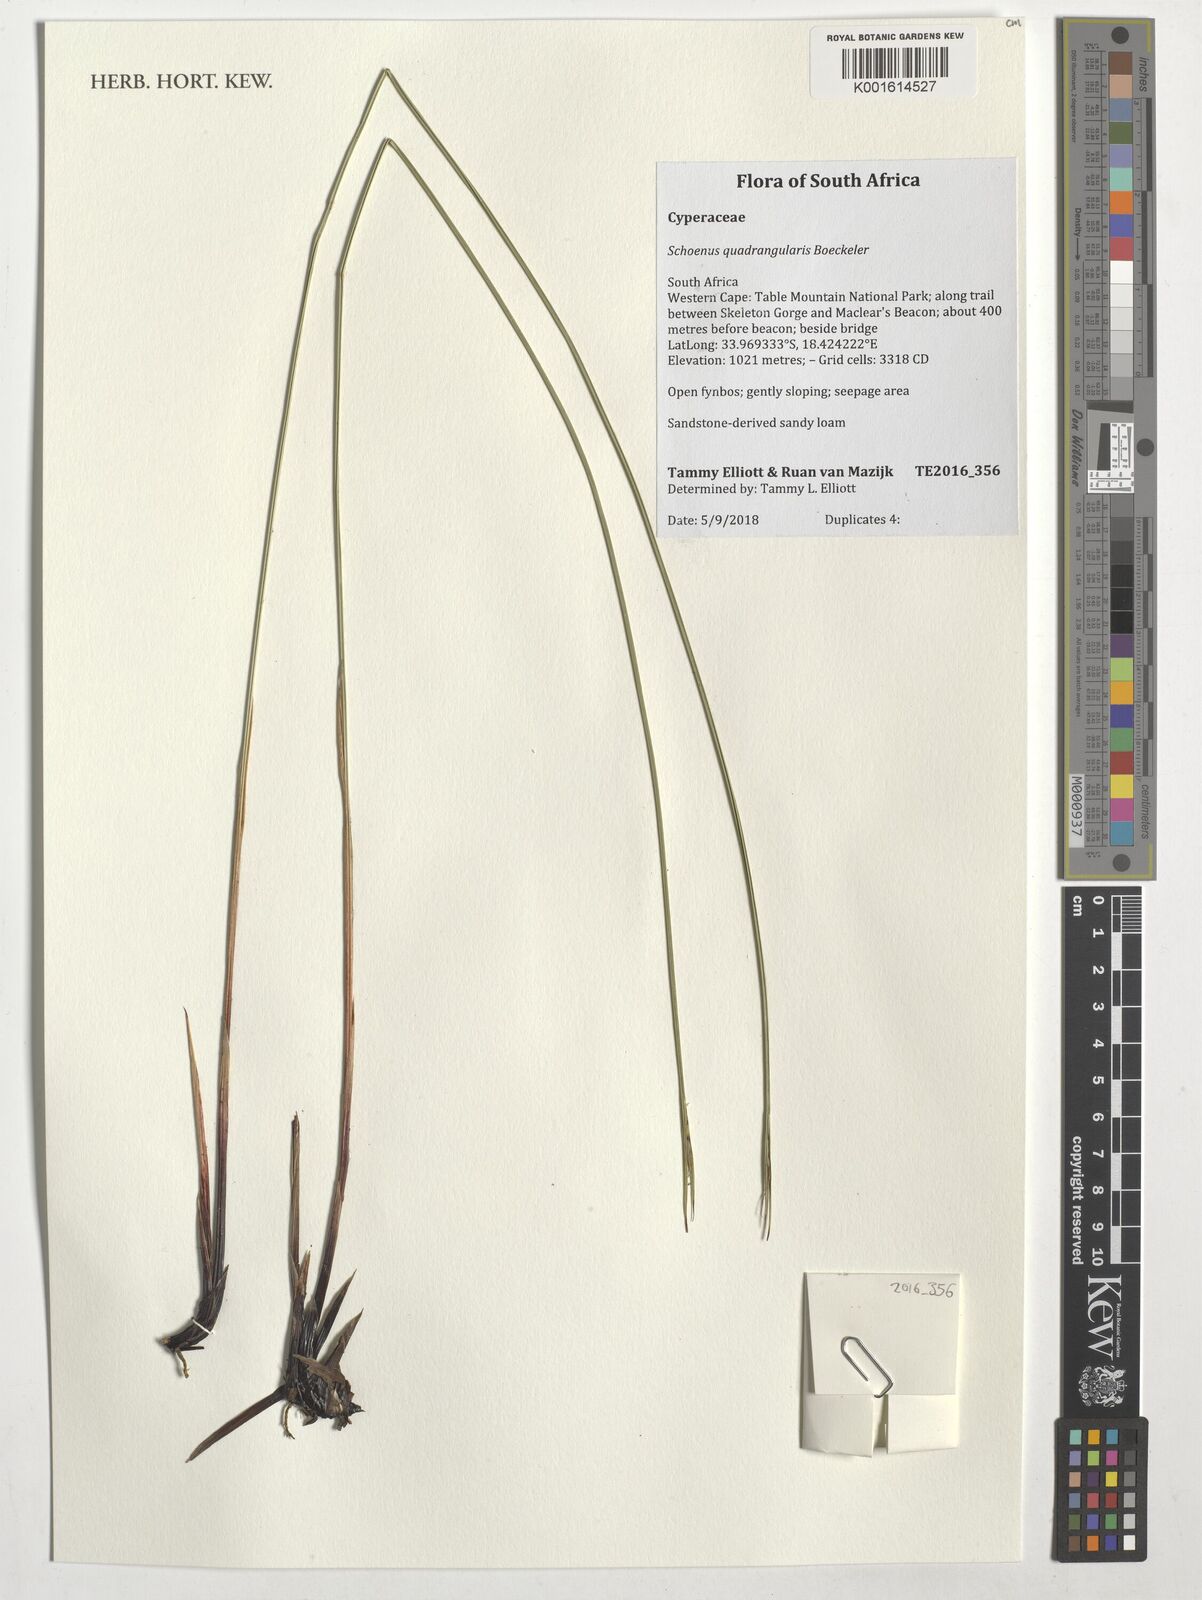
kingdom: Plantae
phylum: Tracheophyta
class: Liliopsida
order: Poales
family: Cyperaceae
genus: Schoenus
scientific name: Schoenus quadrangularis
